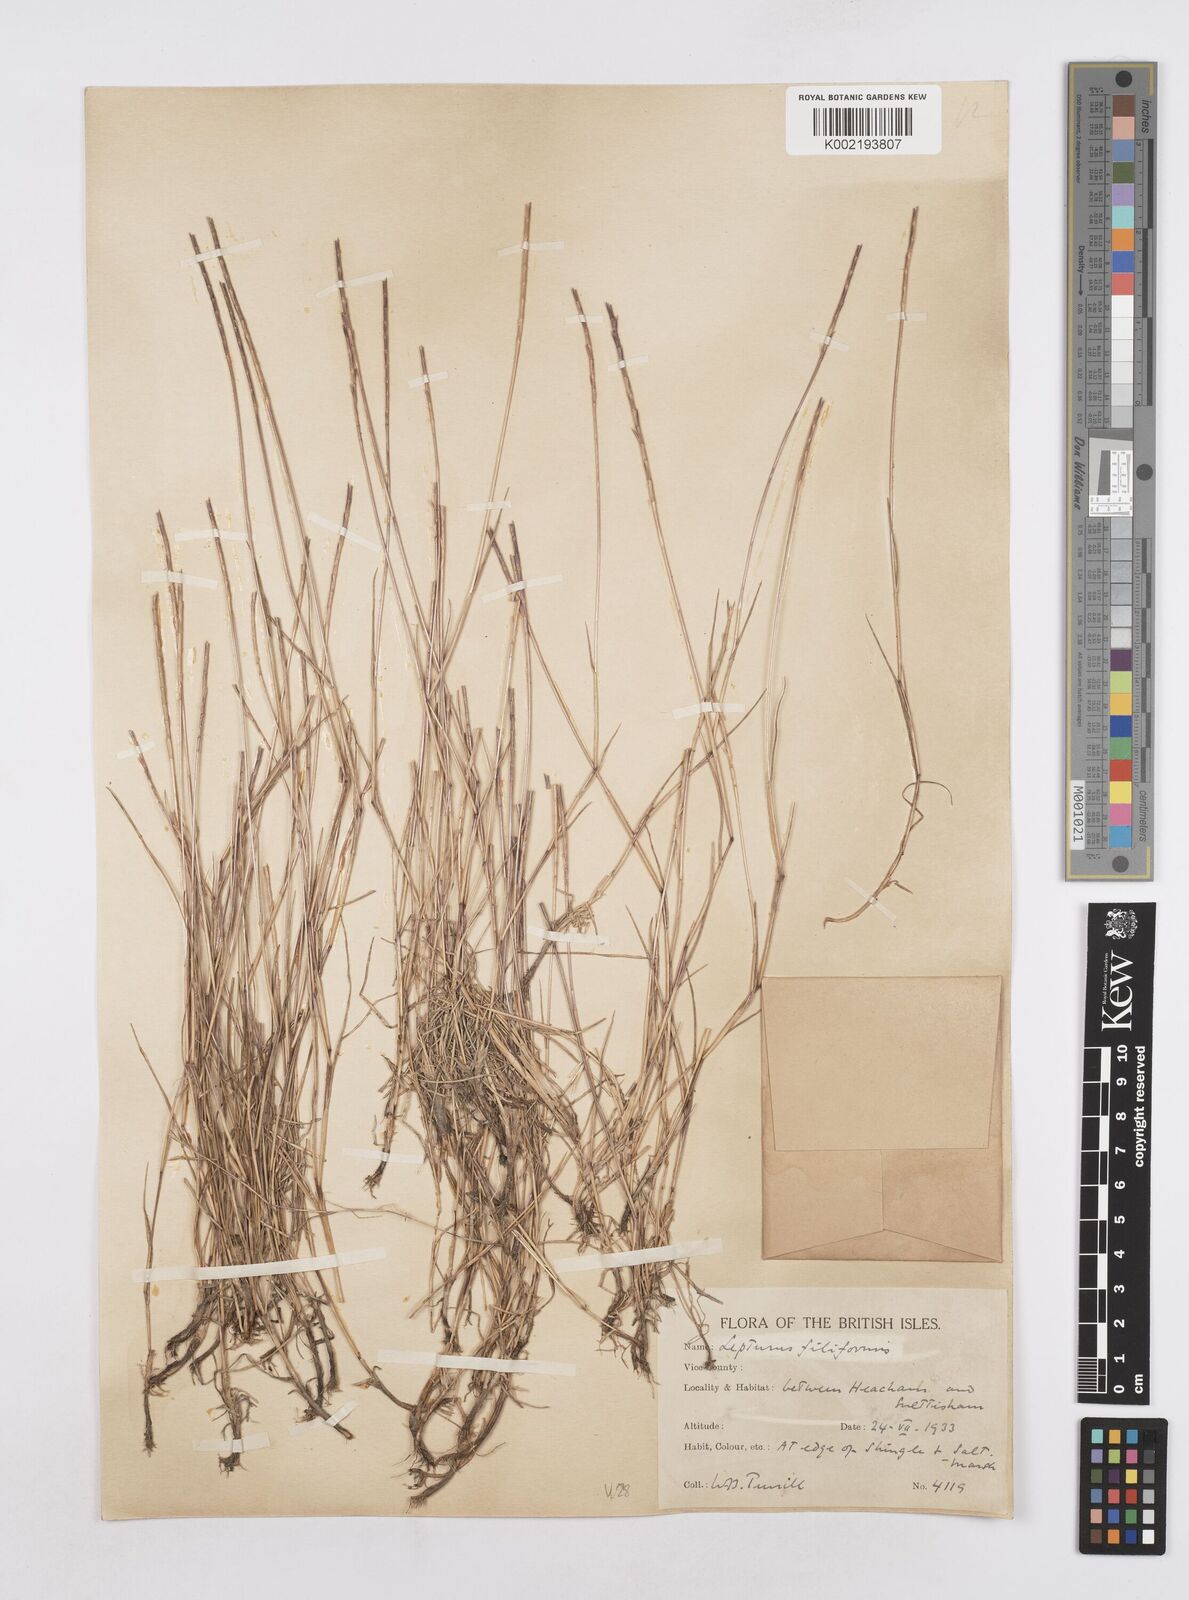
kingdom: Plantae
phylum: Tracheophyta
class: Liliopsida
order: Poales
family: Poaceae
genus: Parapholis
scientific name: Parapholis strigosa
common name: Hard-grass
